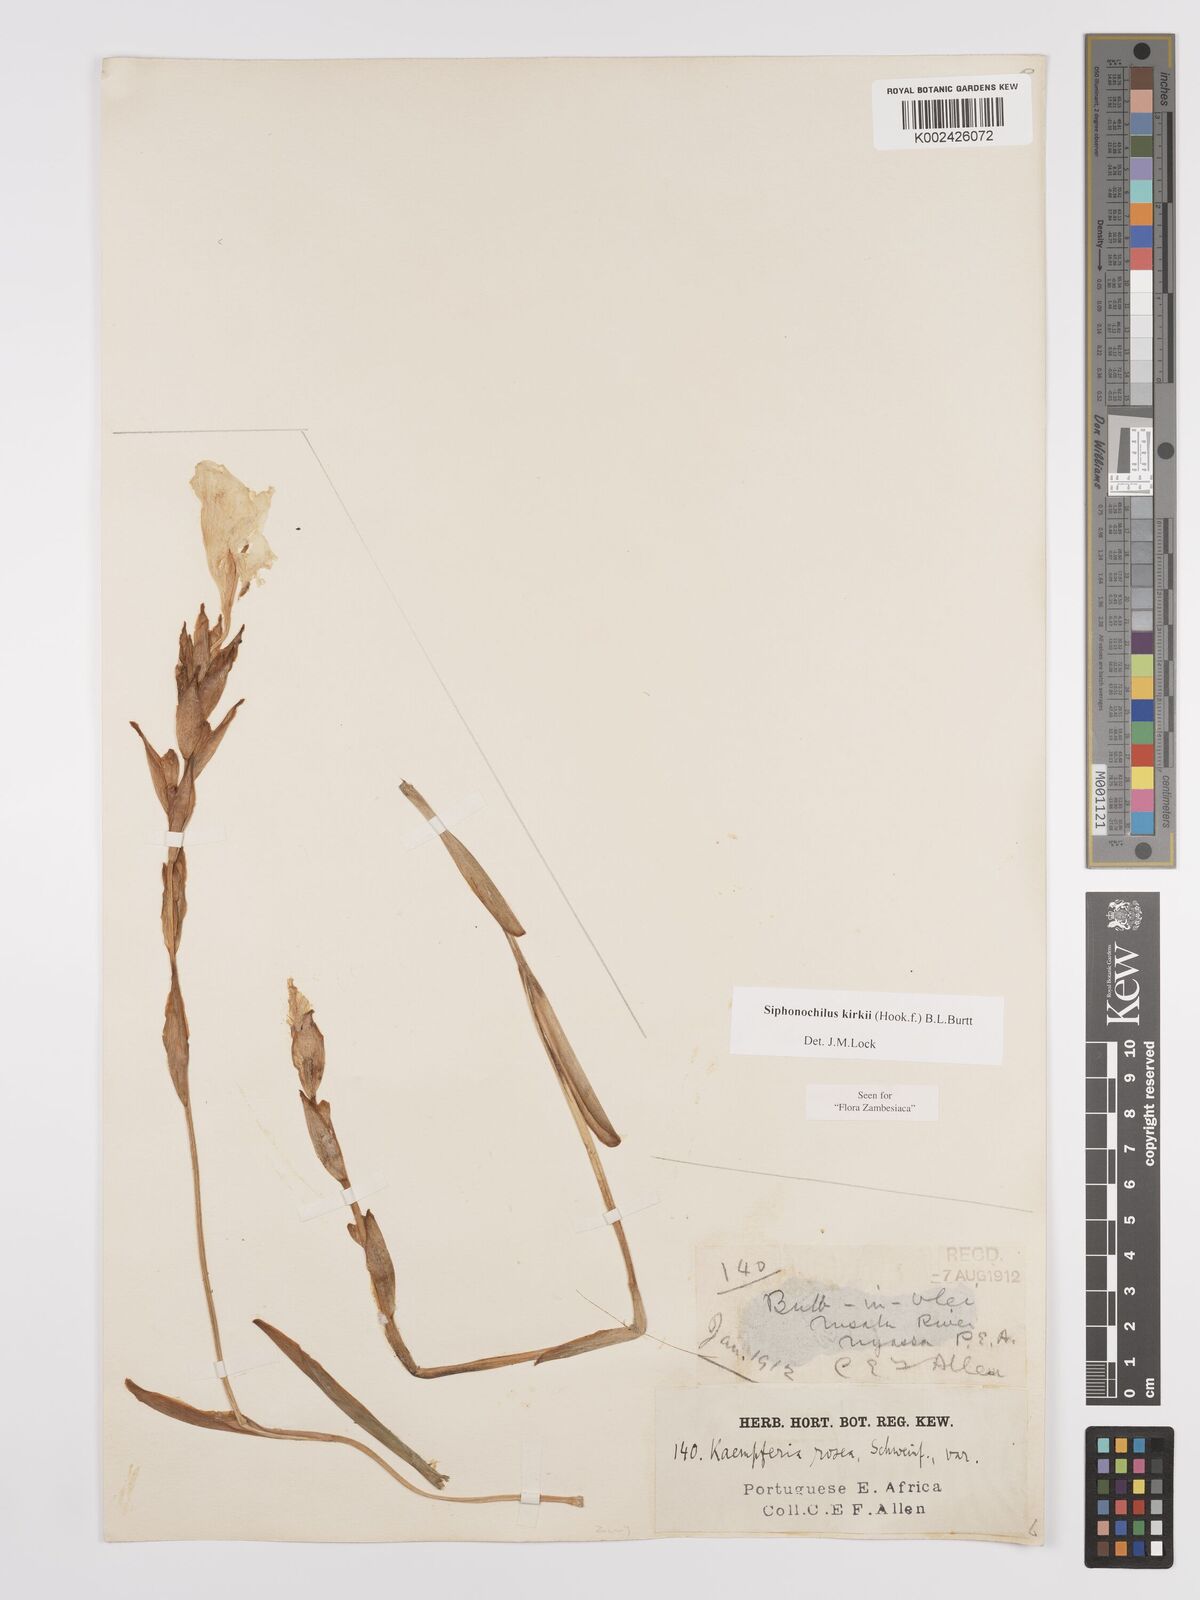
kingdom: Plantae
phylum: Tracheophyta
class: Liliopsida
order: Zingiberales
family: Zingiberaceae
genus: Siphonochilus
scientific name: Siphonochilus kirkii
